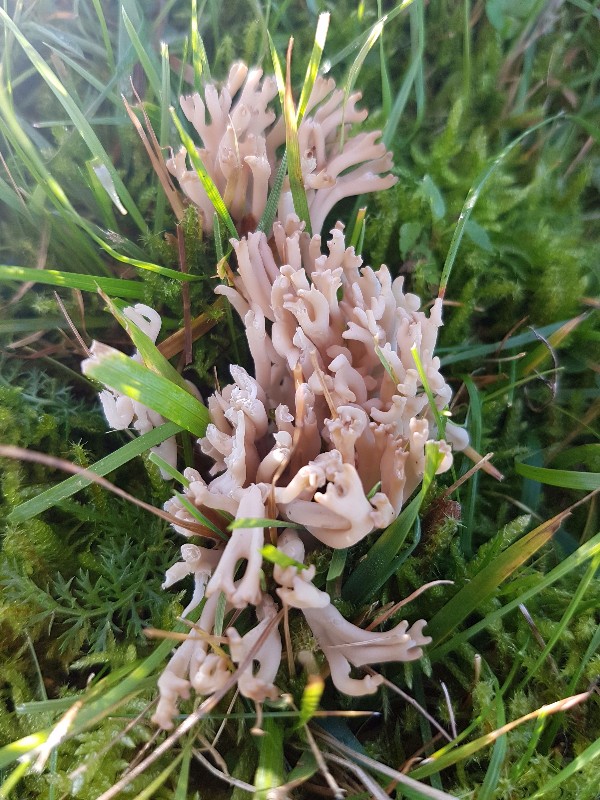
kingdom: Fungi
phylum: Basidiomycota
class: Agaricomycetes
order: Agaricales
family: Clavariaceae
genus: Clavulinopsis
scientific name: Clavulinopsis umbrinella
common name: gulgrå køllesvamp
